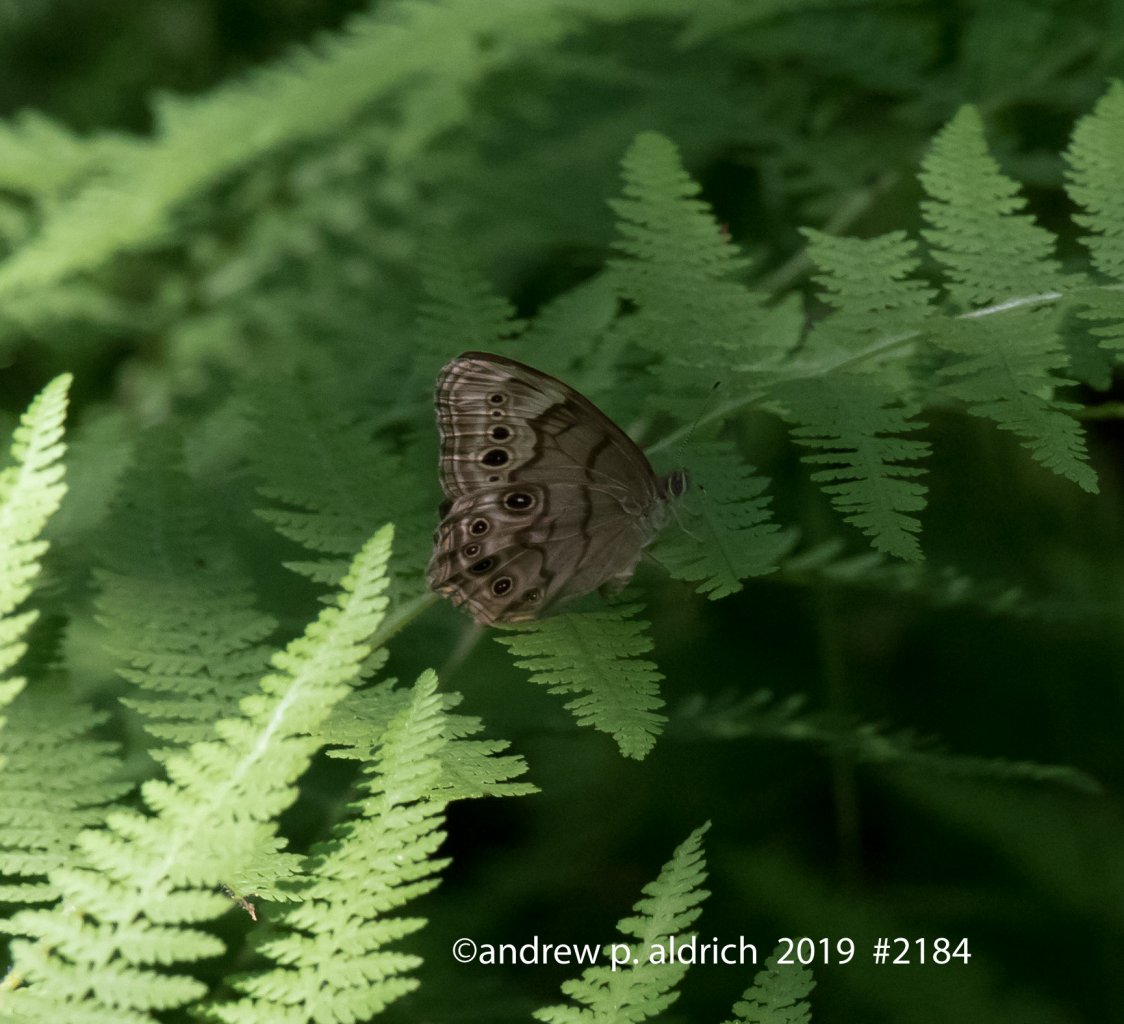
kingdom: Animalia
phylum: Arthropoda
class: Insecta
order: Lepidoptera
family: Nymphalidae
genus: Lethe
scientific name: Lethe anthedon
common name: Northern Pearly-Eye
